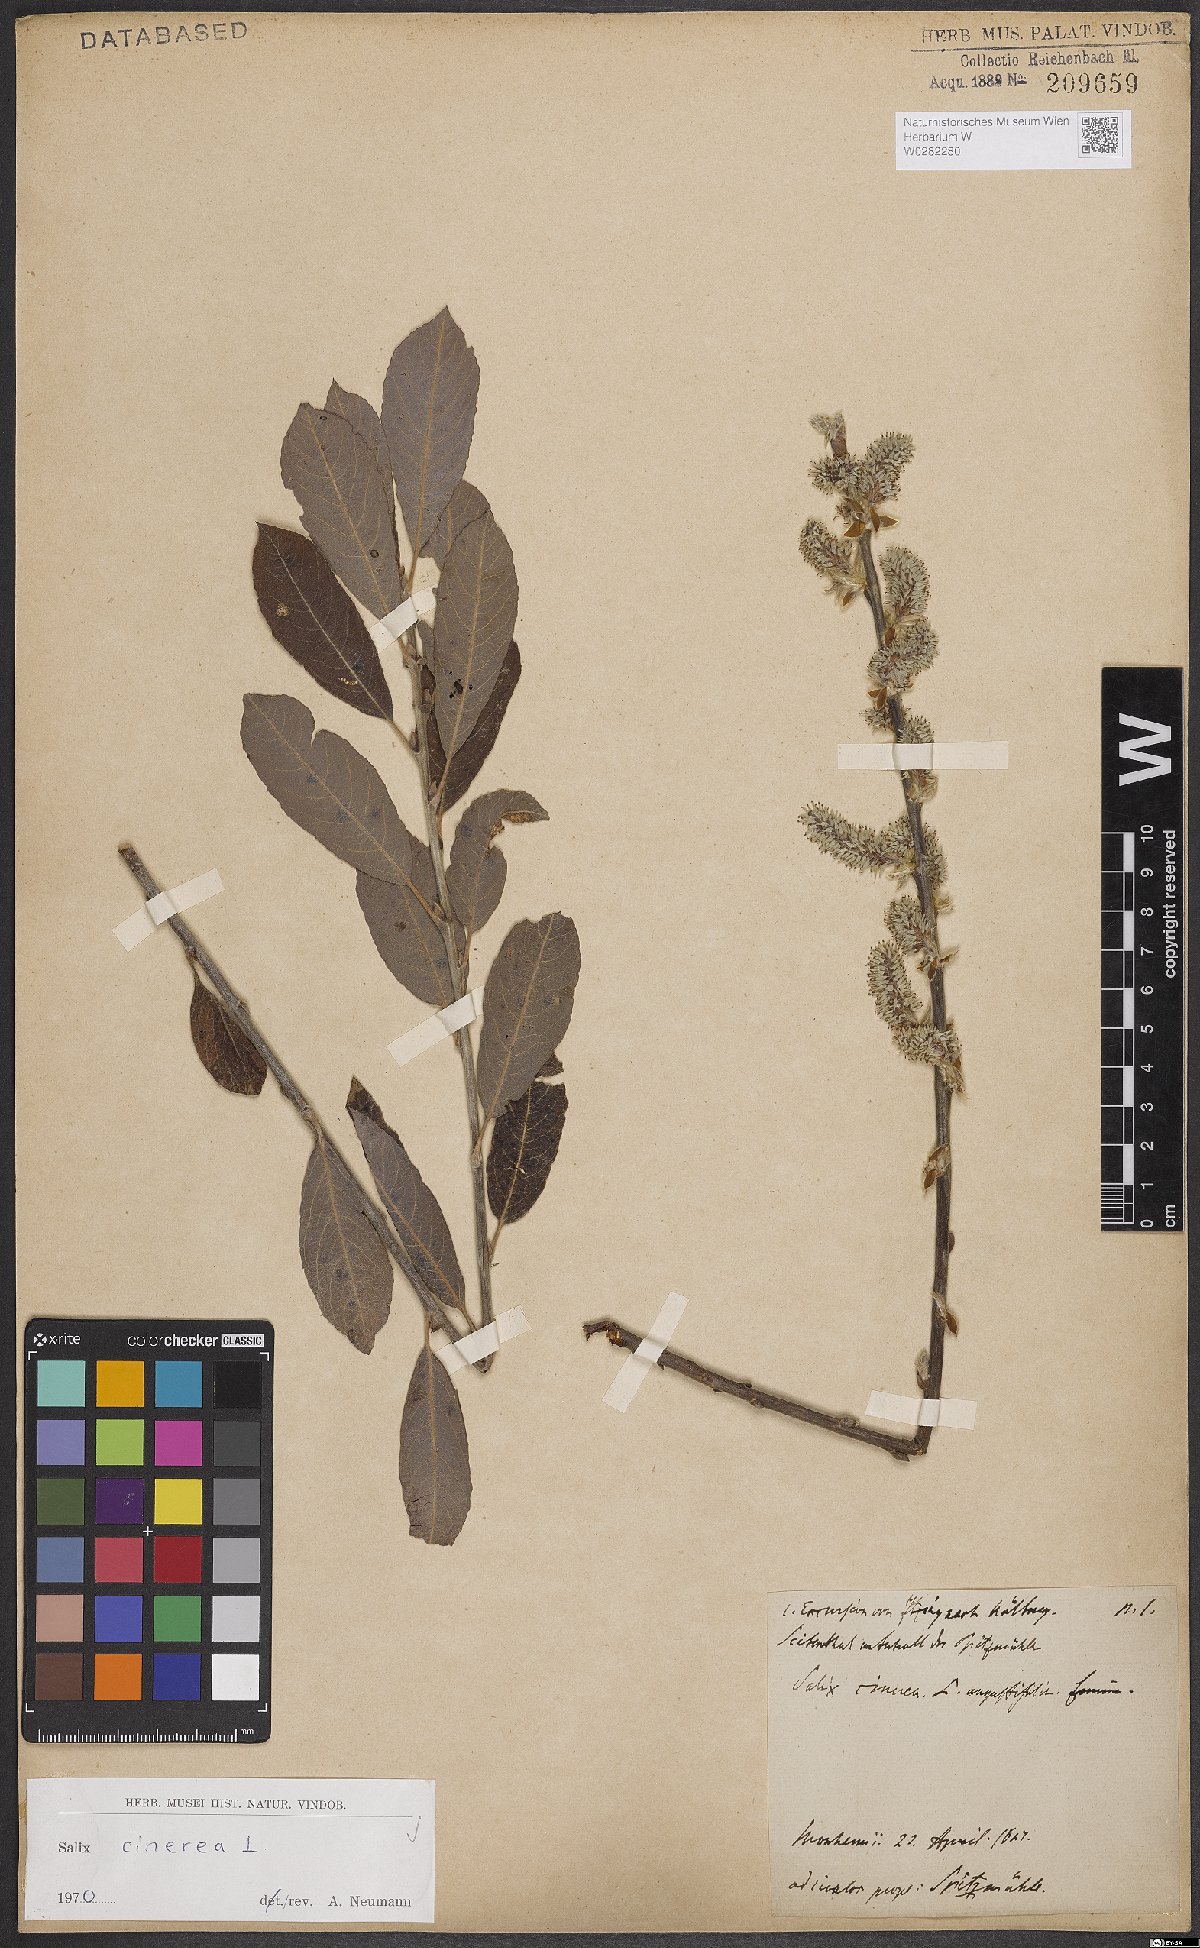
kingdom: Plantae
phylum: Tracheophyta
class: Magnoliopsida
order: Malpighiales
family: Salicaceae
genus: Salix
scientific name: Salix cinerea
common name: Common sallow
